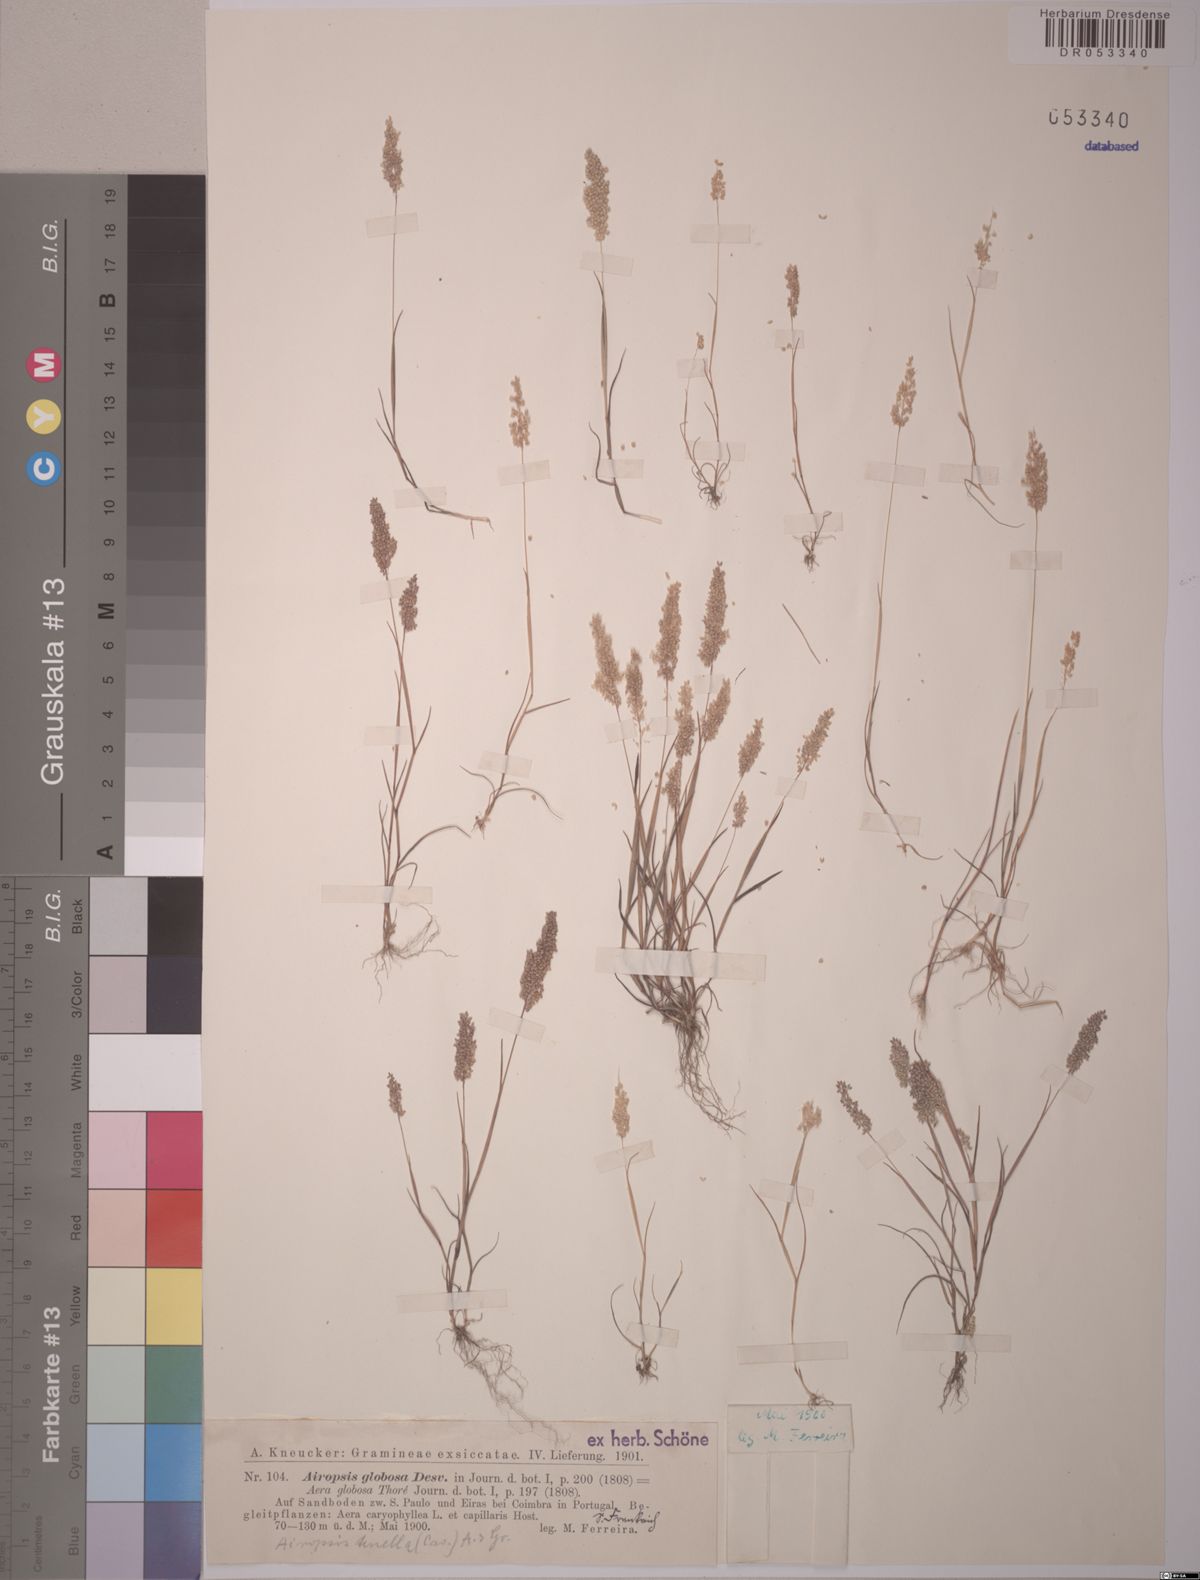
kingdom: Plantae
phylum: Tracheophyta
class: Liliopsida
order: Poales
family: Poaceae
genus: Airopsis
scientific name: Airopsis tenella
